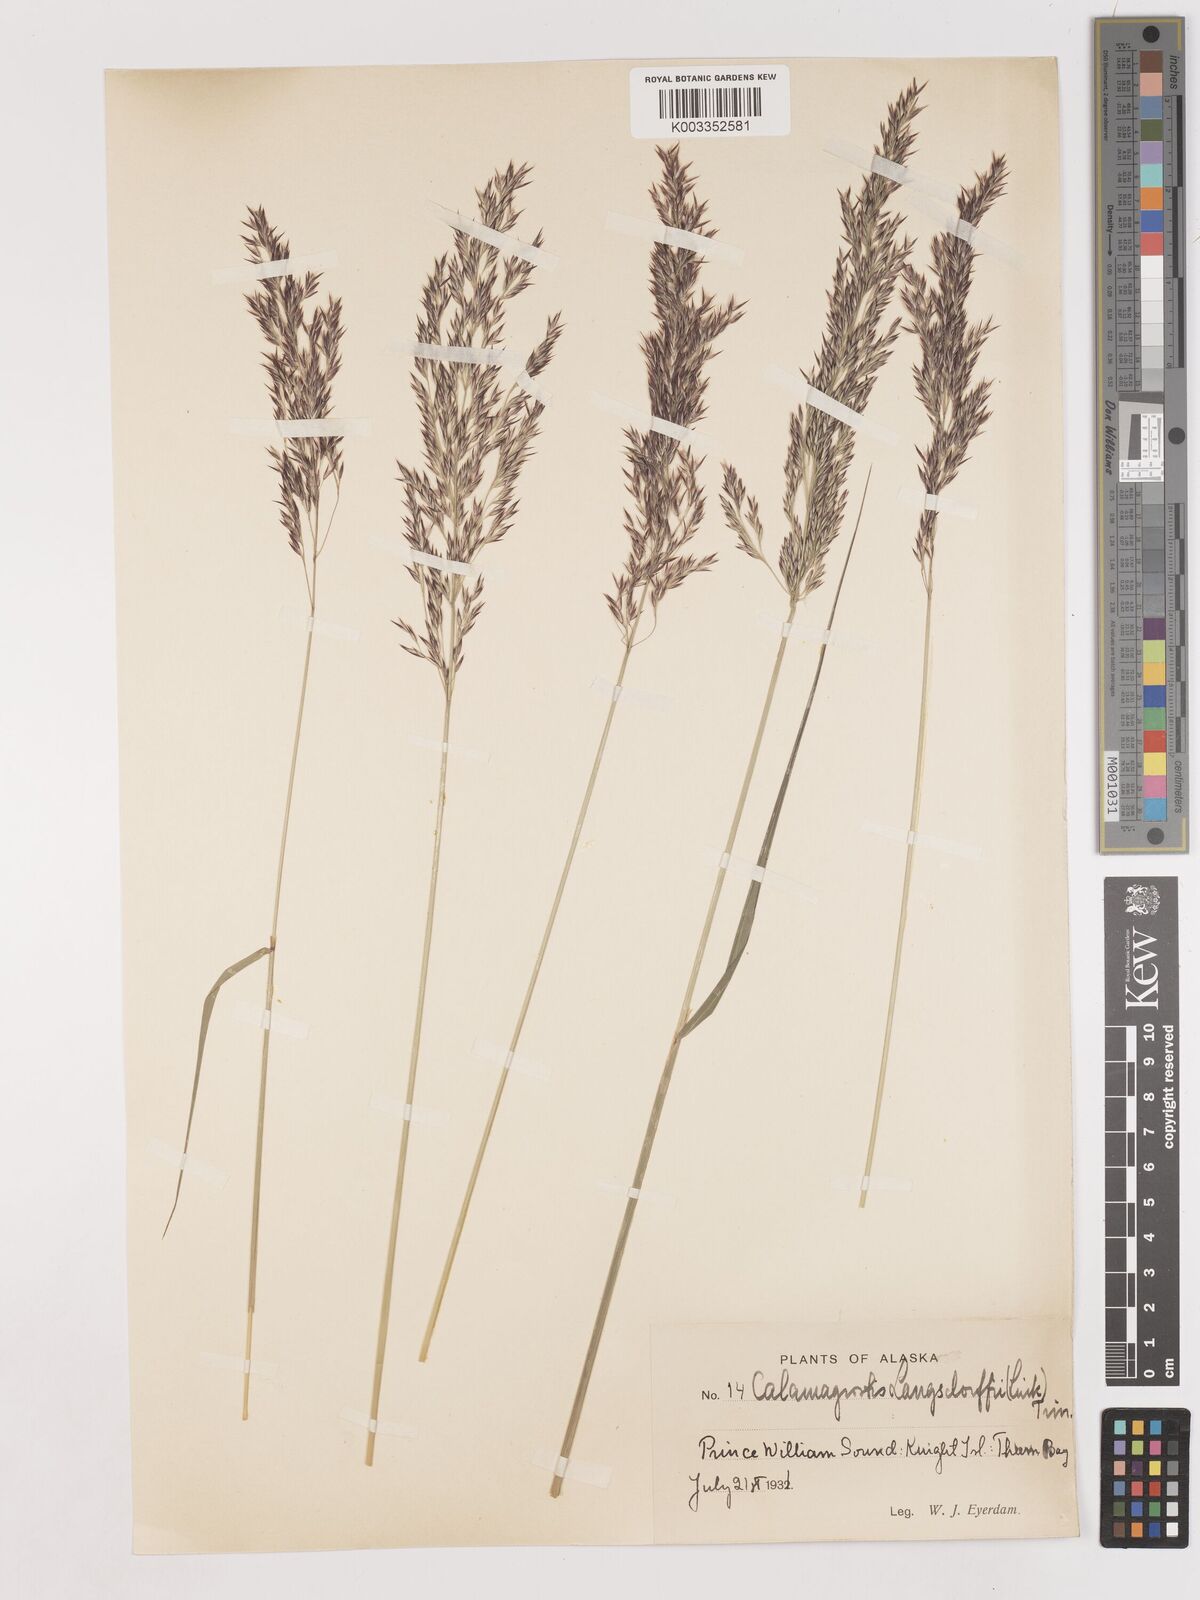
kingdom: Plantae
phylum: Tracheophyta
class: Liliopsida
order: Poales
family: Poaceae
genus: Calamagrostis
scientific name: Calamagrostis canadensis
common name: Canada bluejoint
